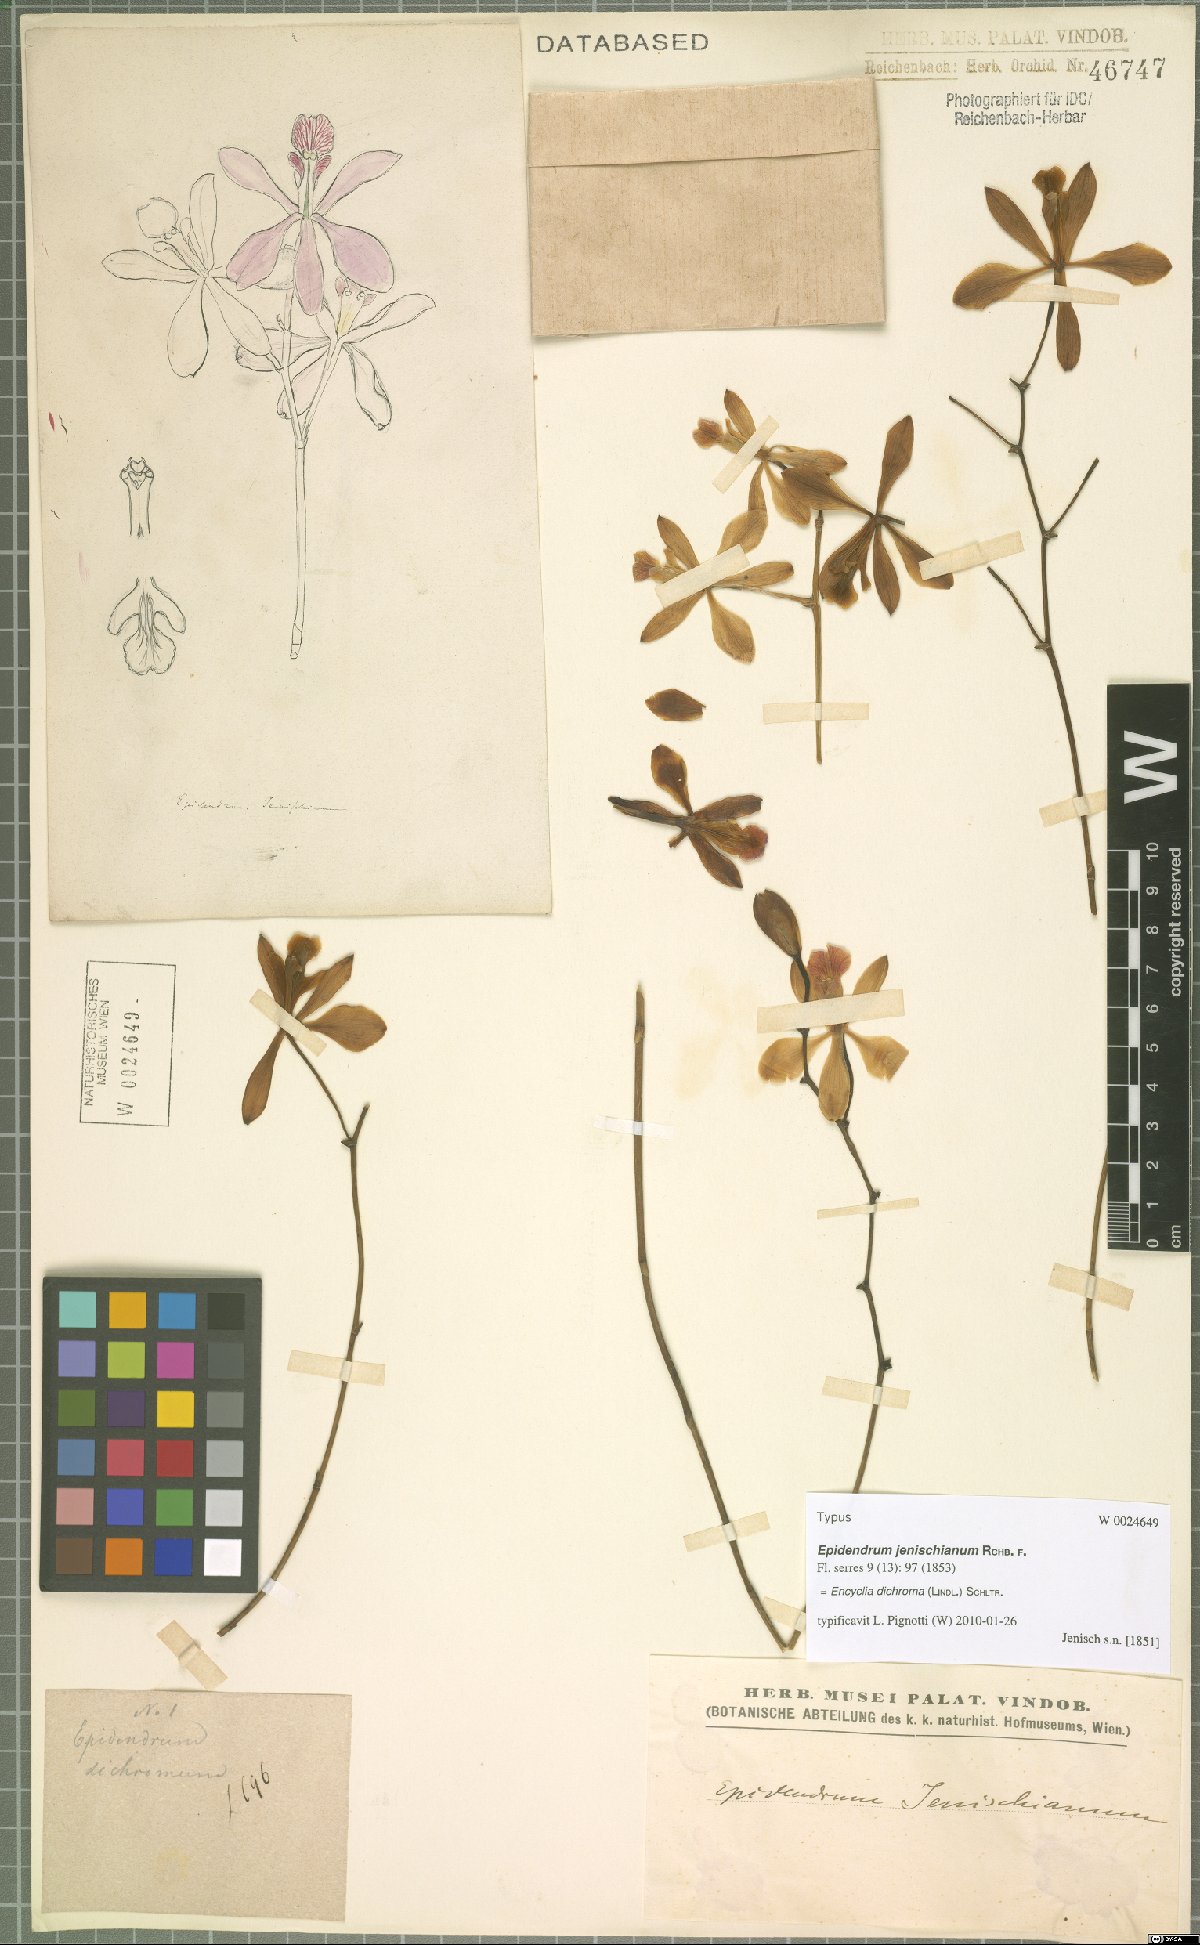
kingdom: Plantae
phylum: Tracheophyta
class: Liliopsida
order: Asparagales
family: Orchidaceae
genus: Encyclia
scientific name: Encyclia dichroma
